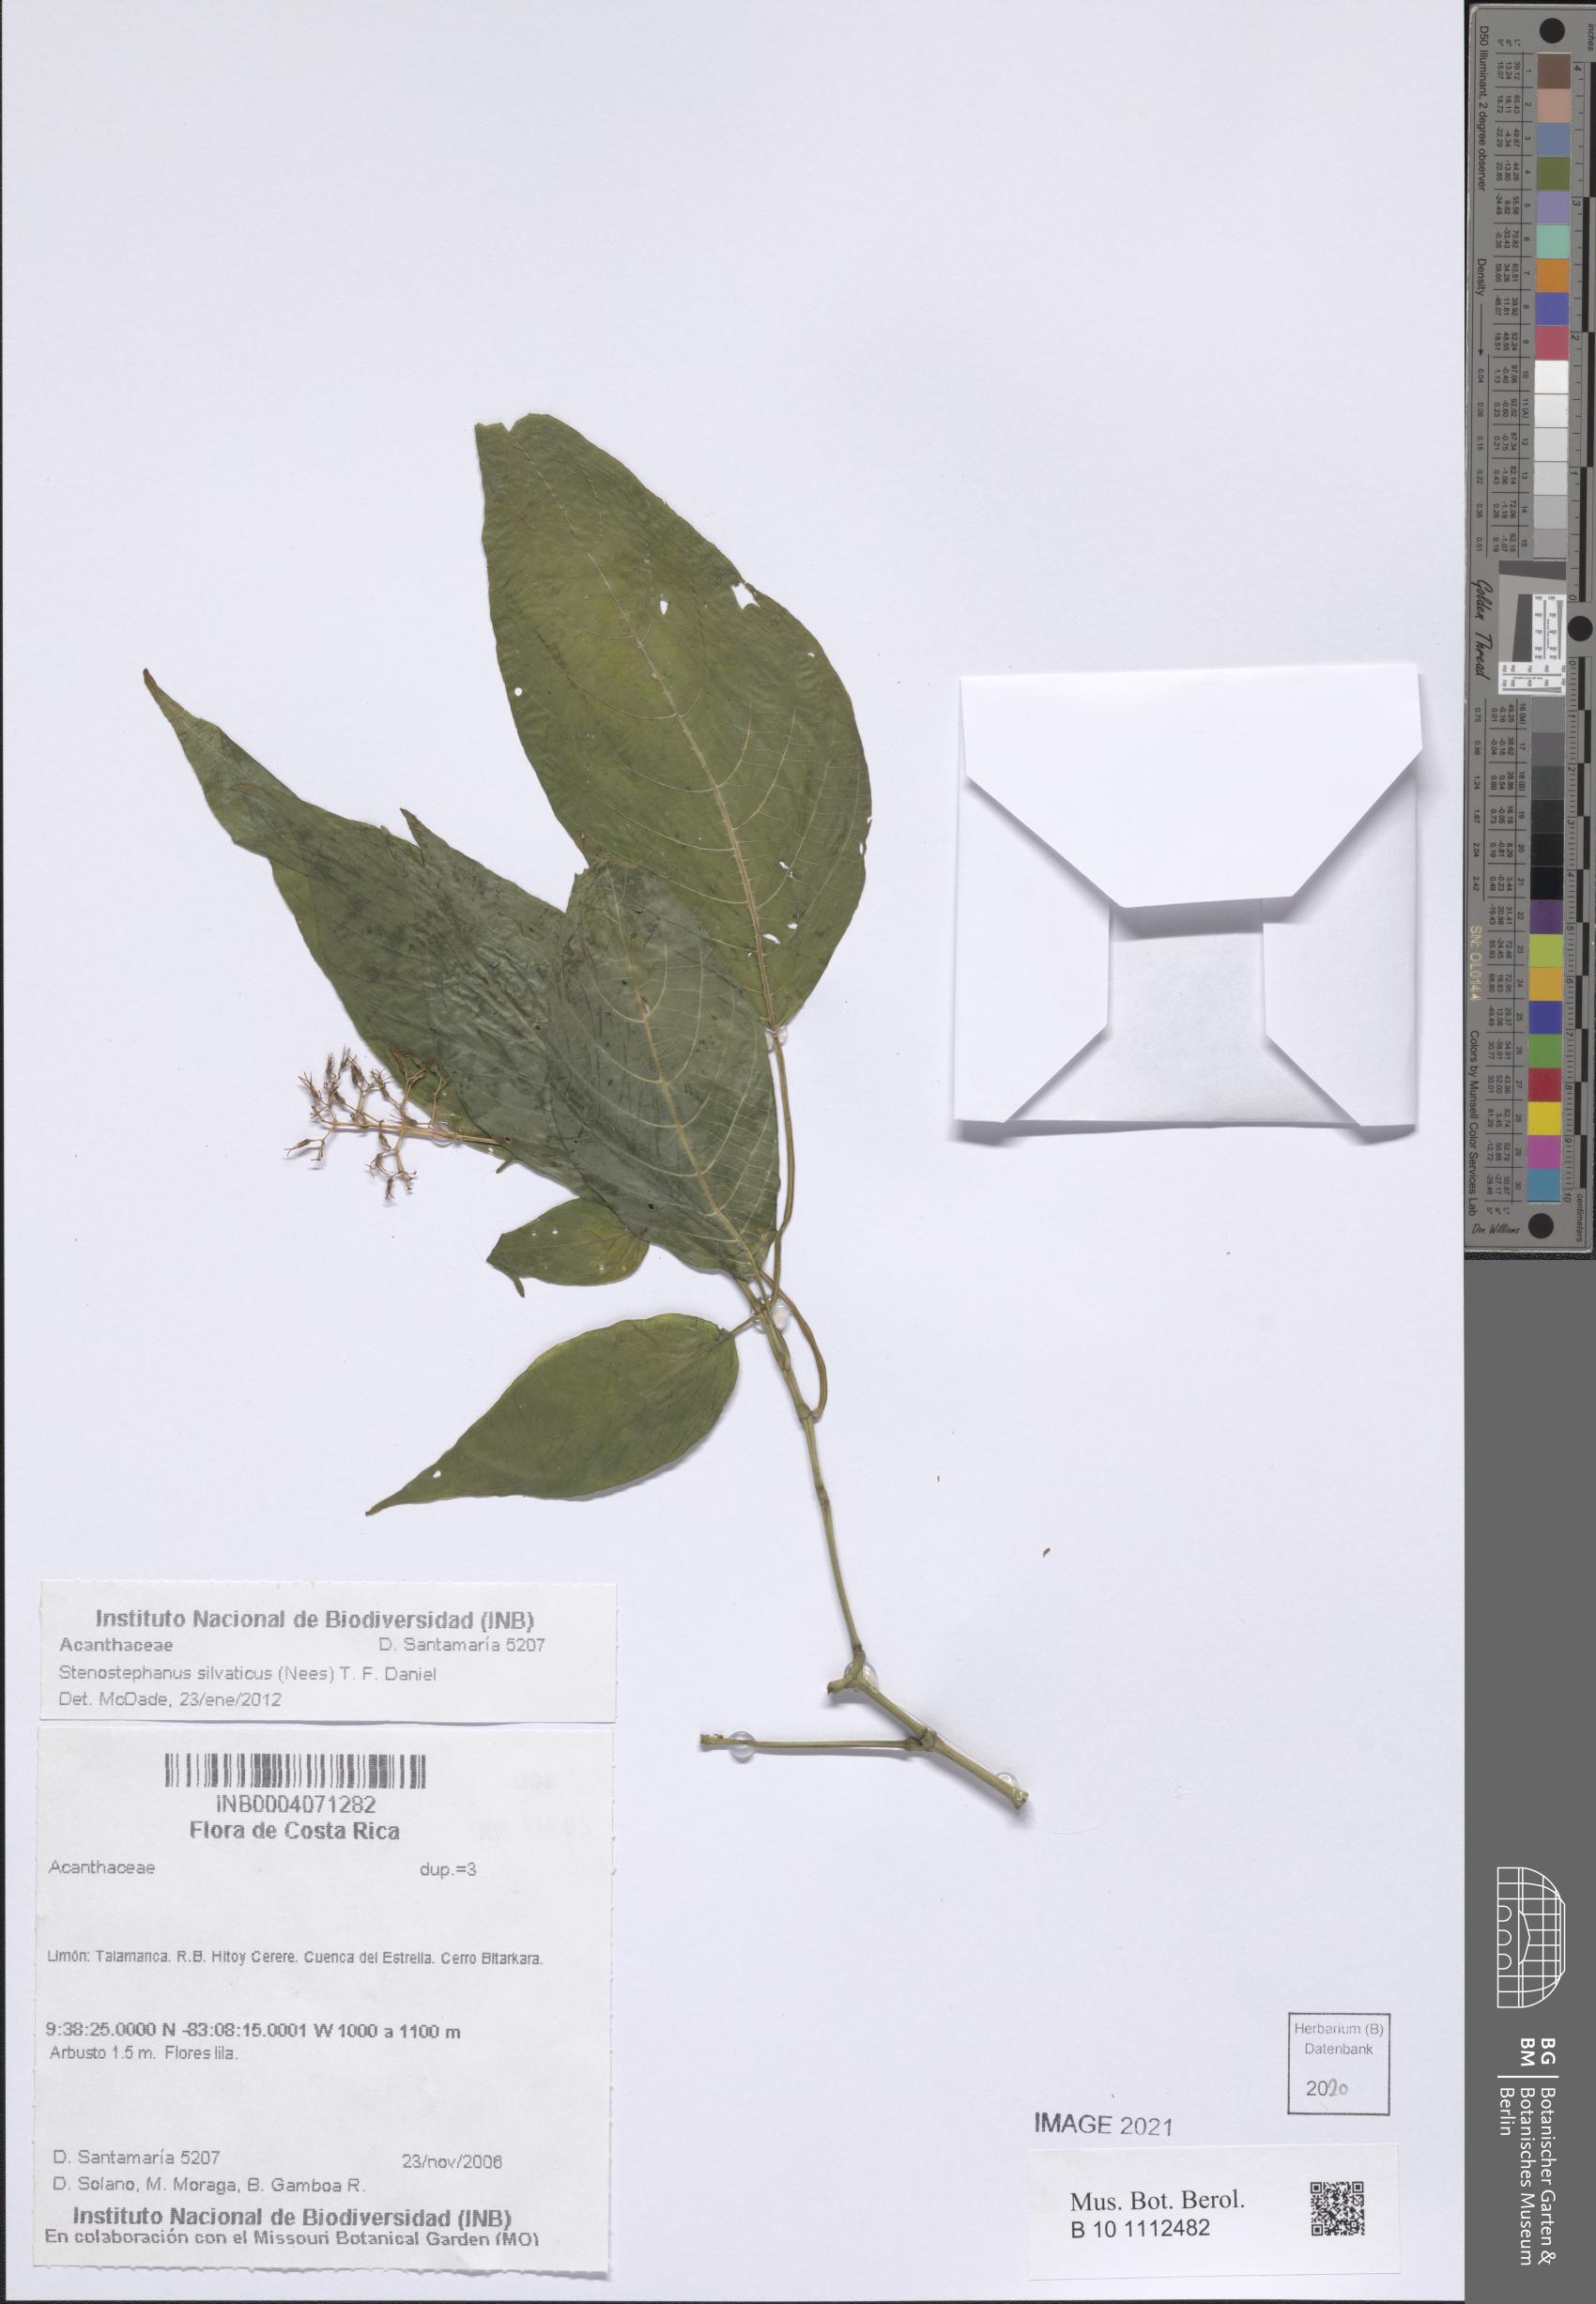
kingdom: Plantae
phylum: Tracheophyta
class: Magnoliopsida
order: Lamiales
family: Acanthaceae
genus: Stenostephanus
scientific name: Stenostephanus silvaticus
